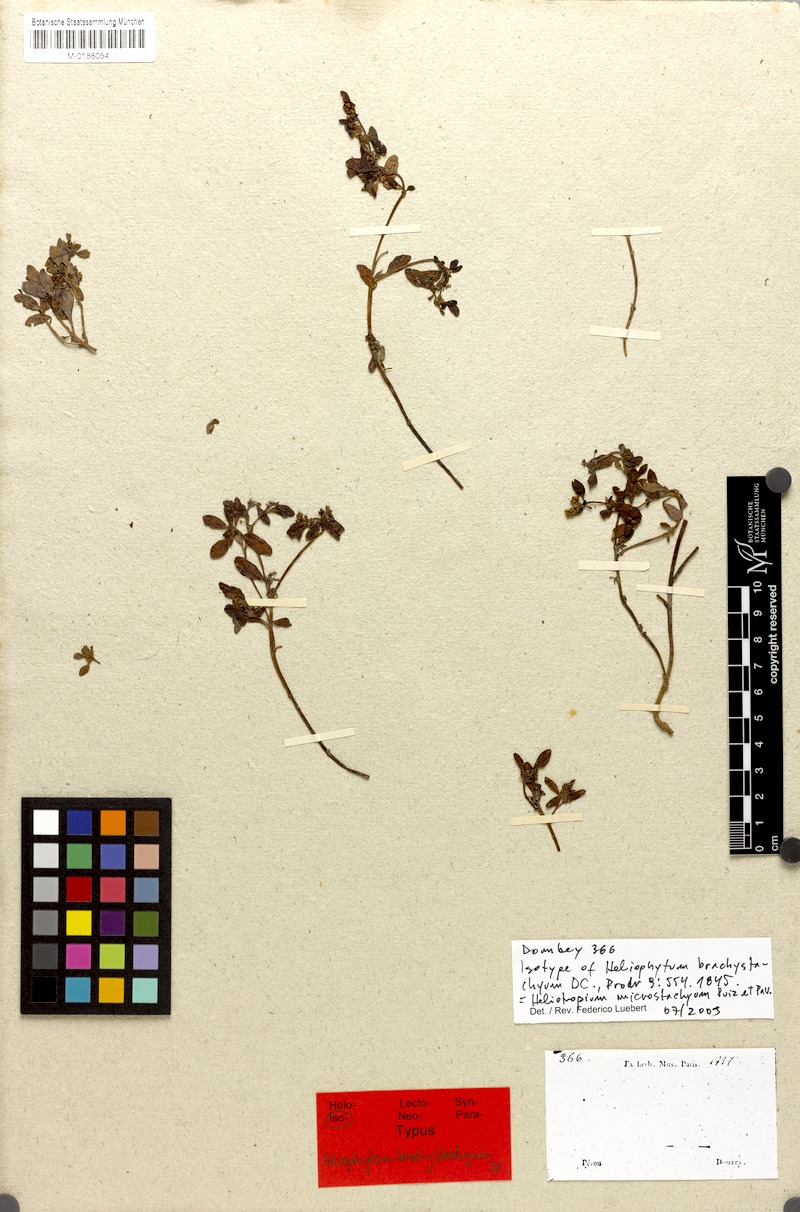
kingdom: Plantae
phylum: Tracheophyta
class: Magnoliopsida
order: Boraginales
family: Heliotropiaceae
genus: Heliotropium
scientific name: Heliotropium microstachyum
